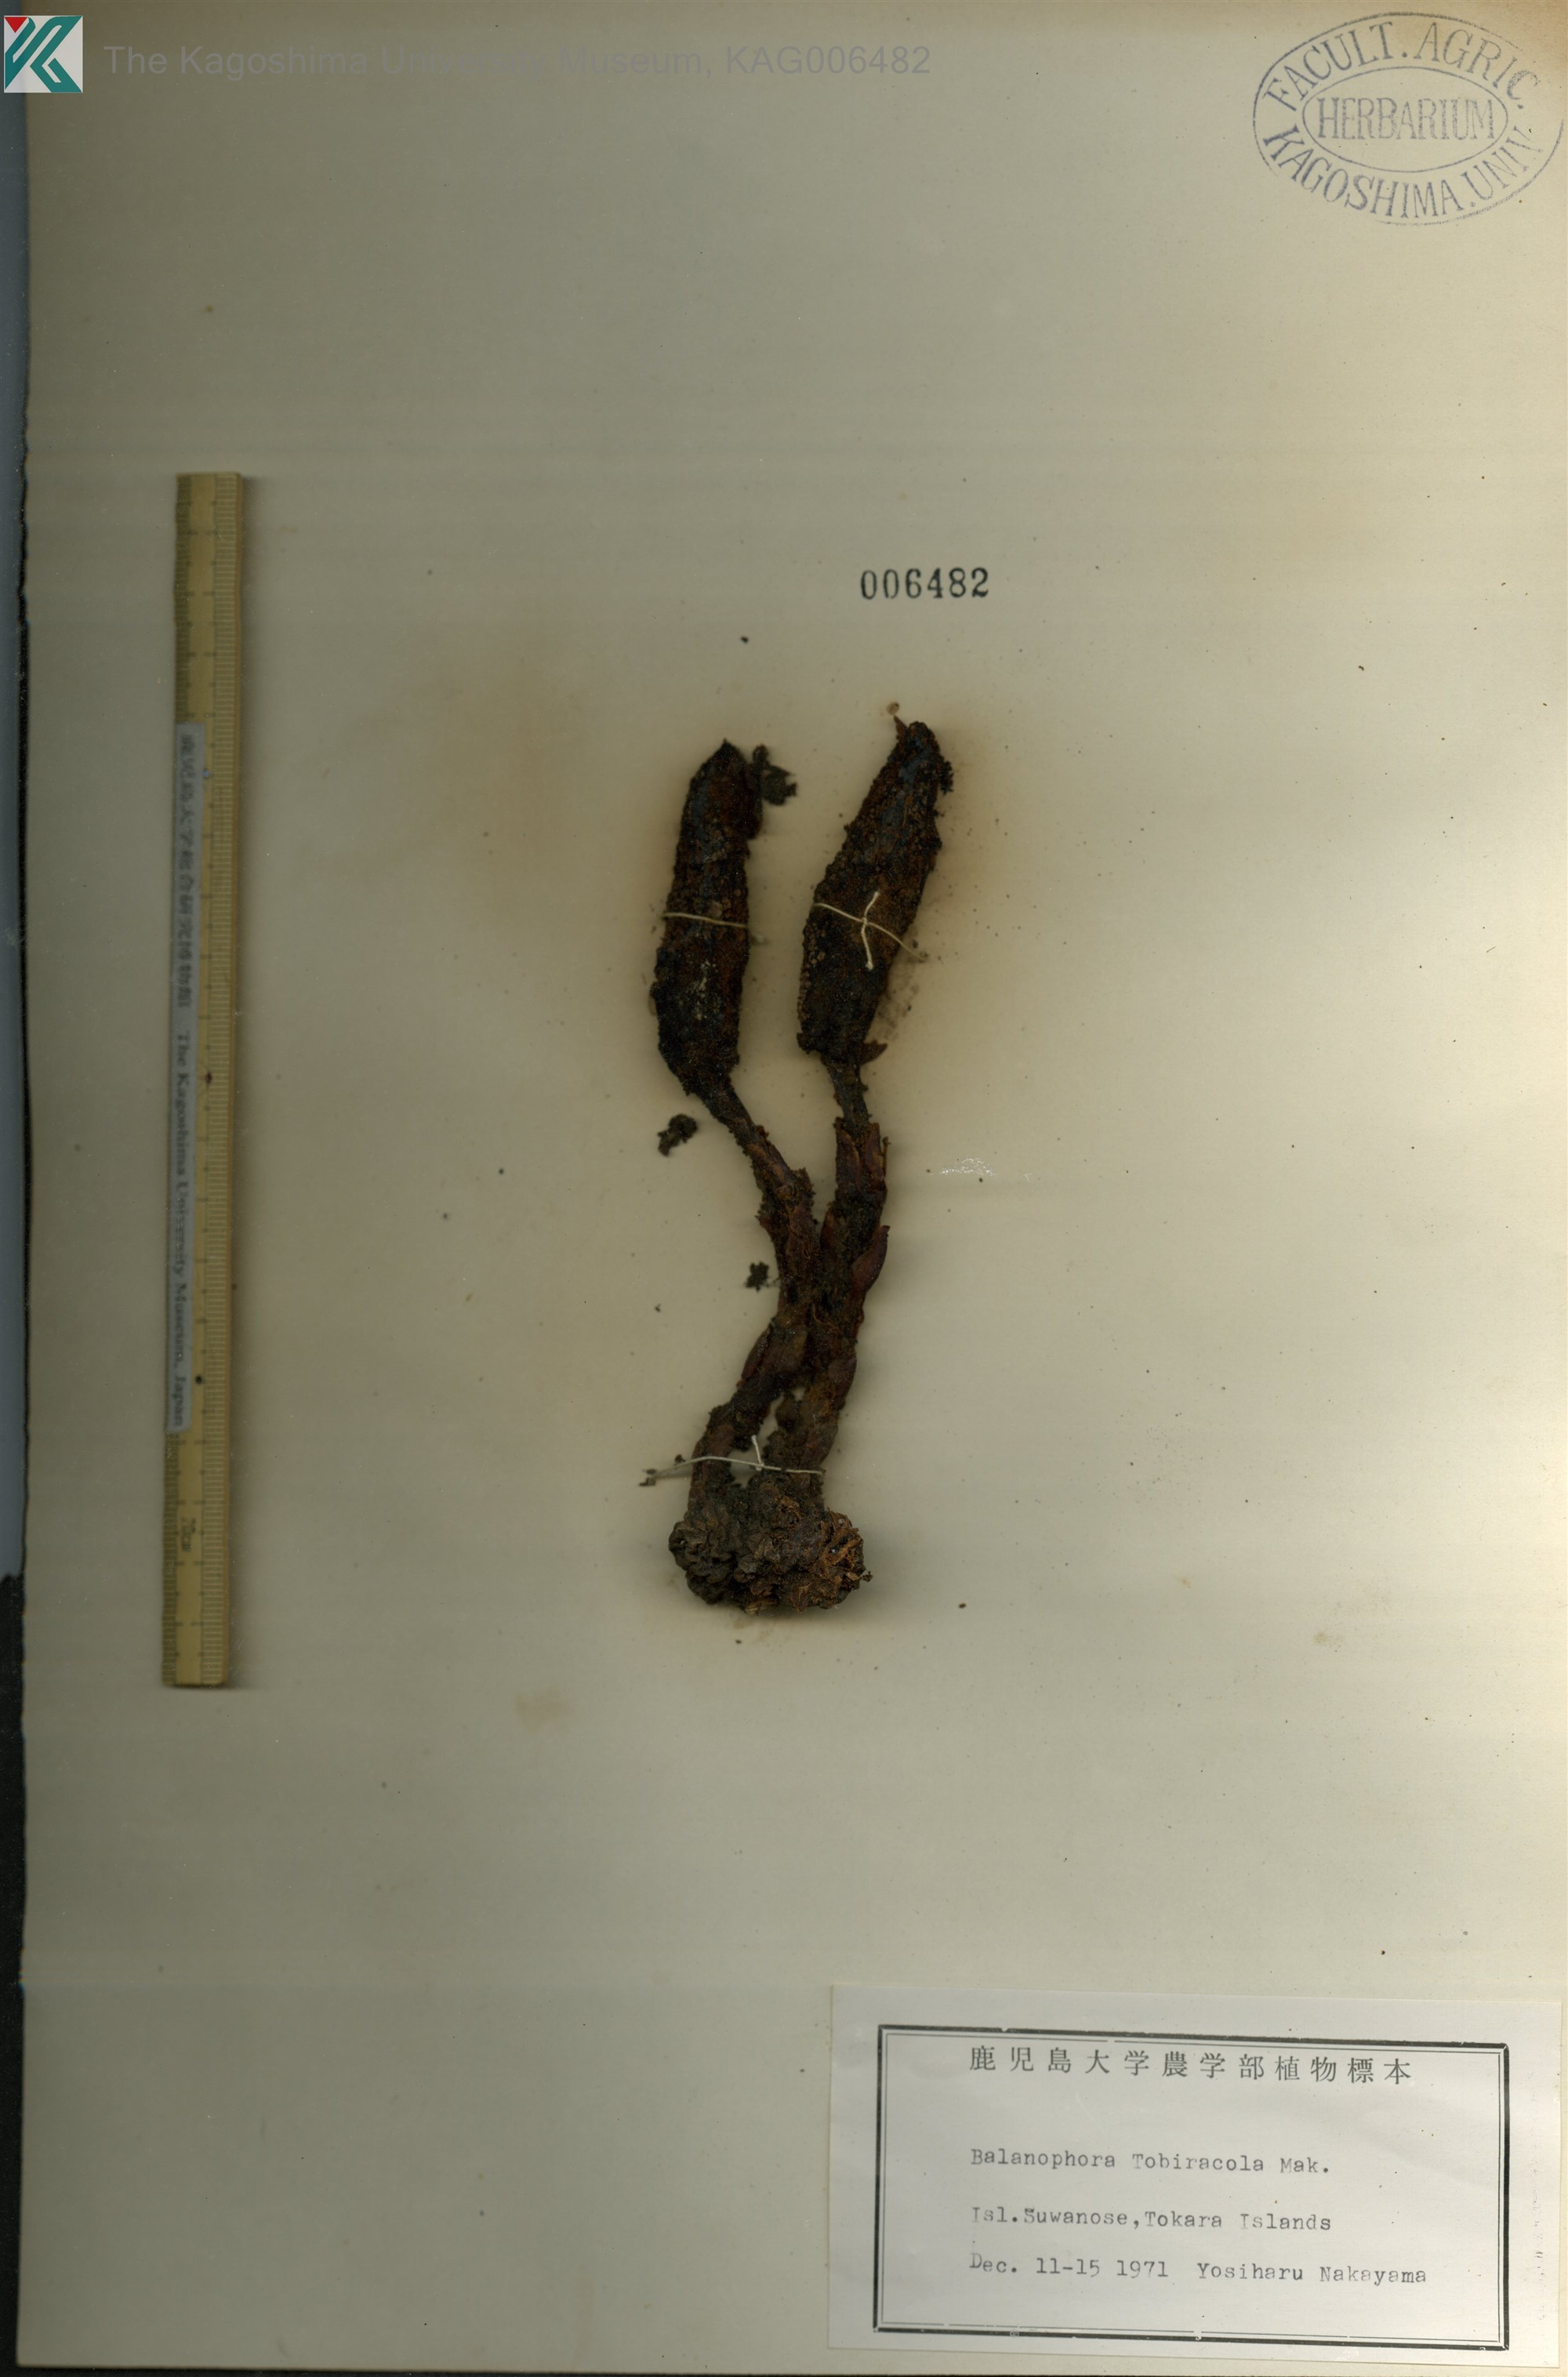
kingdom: Plantae
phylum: Tracheophyta
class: Magnoliopsida
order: Santalales
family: Balanophoraceae
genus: Balanophora
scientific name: Balanophora tobiracola
